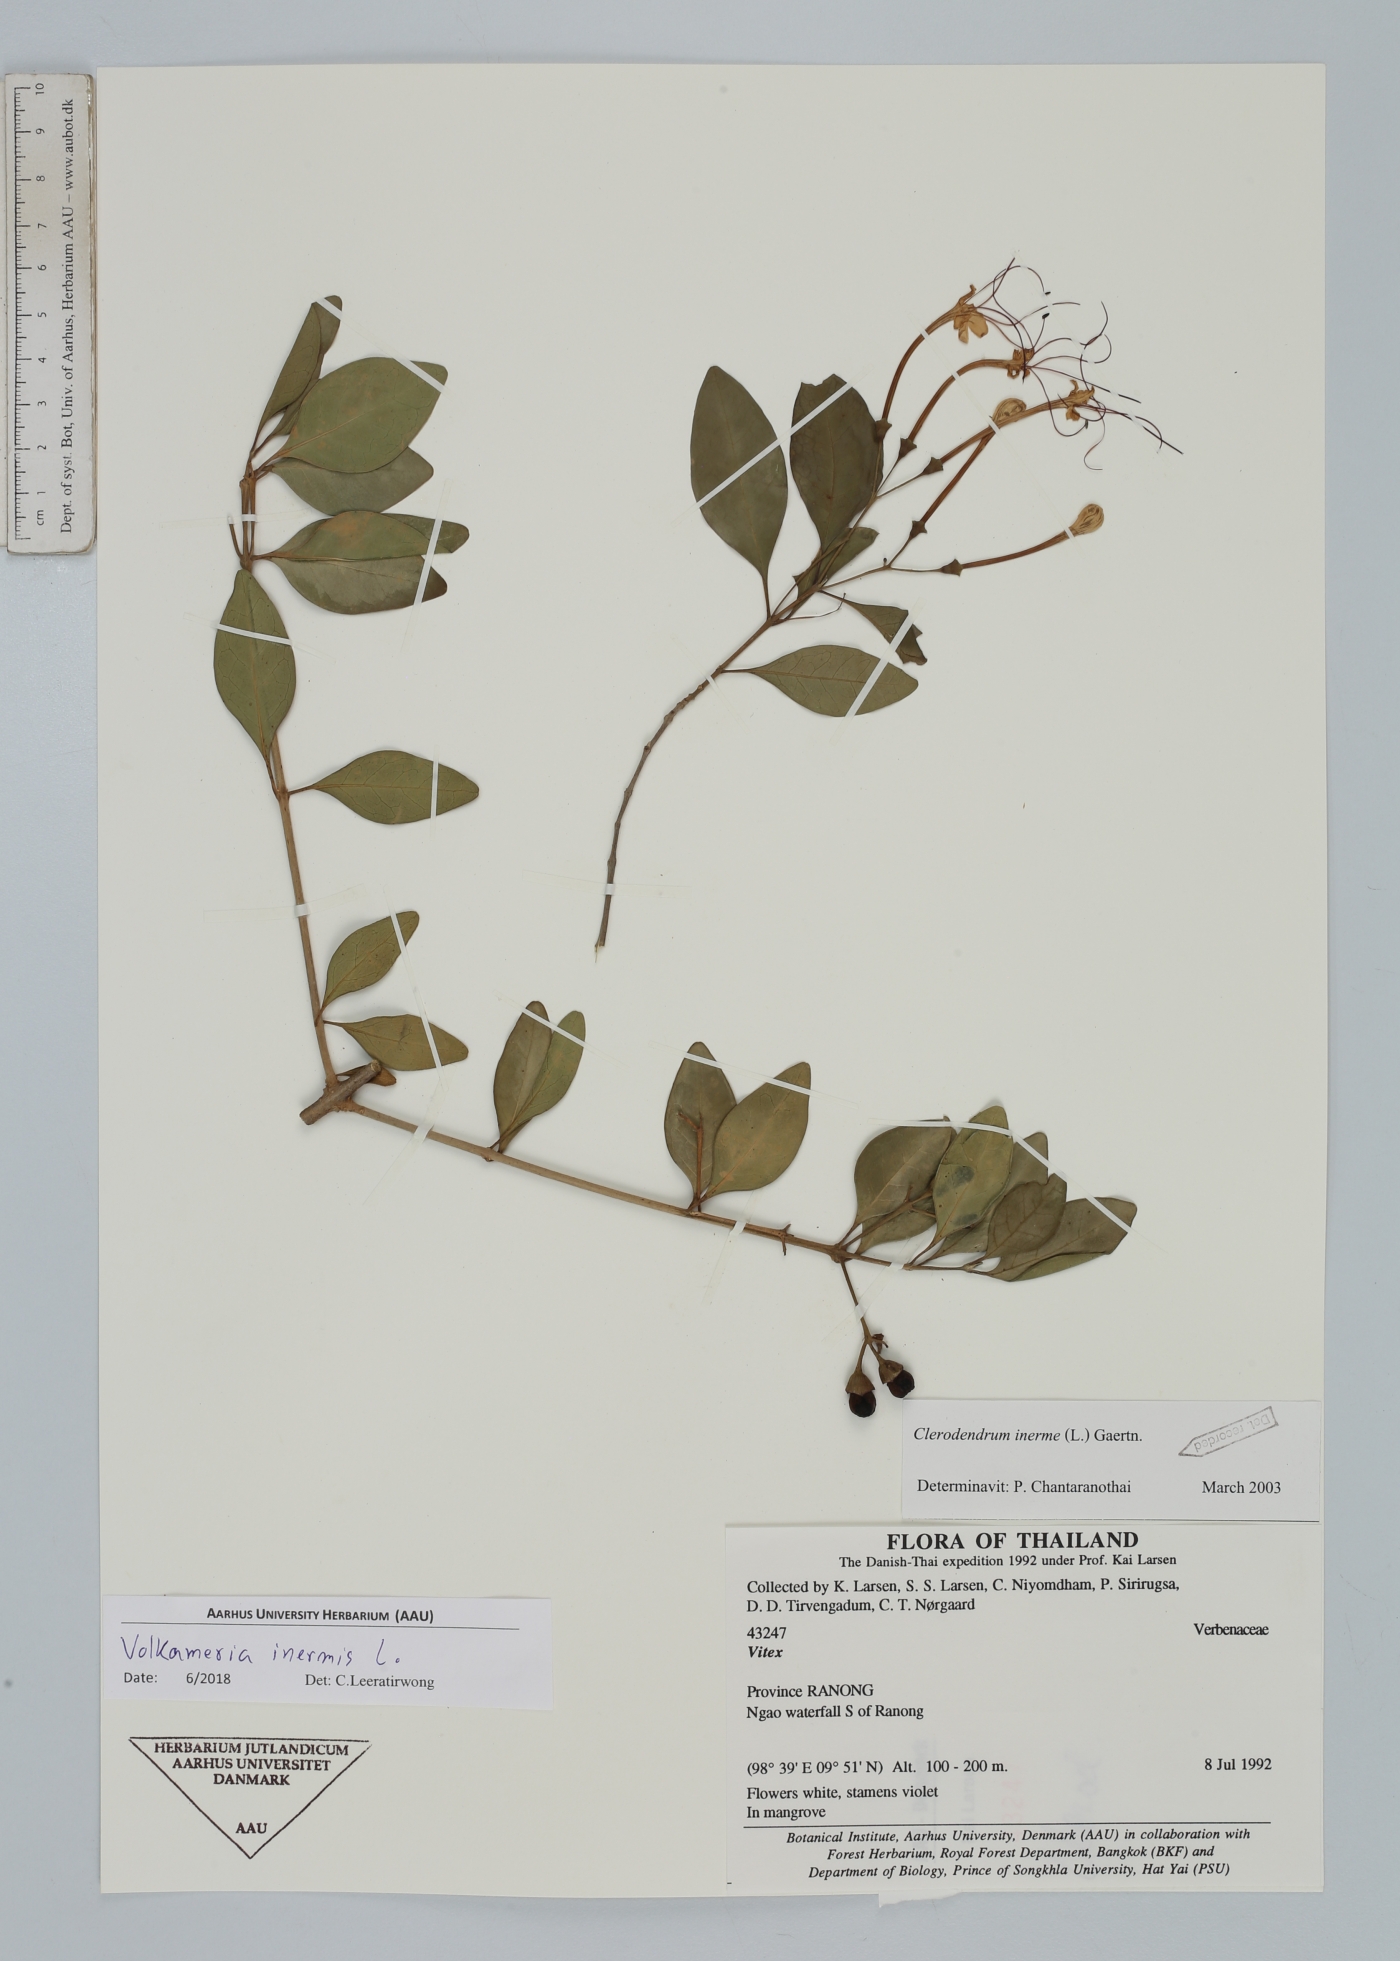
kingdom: Plantae
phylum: Tracheophyta
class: Magnoliopsida
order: Lamiales
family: Lamiaceae
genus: Volkameria
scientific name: Volkameria inermis
